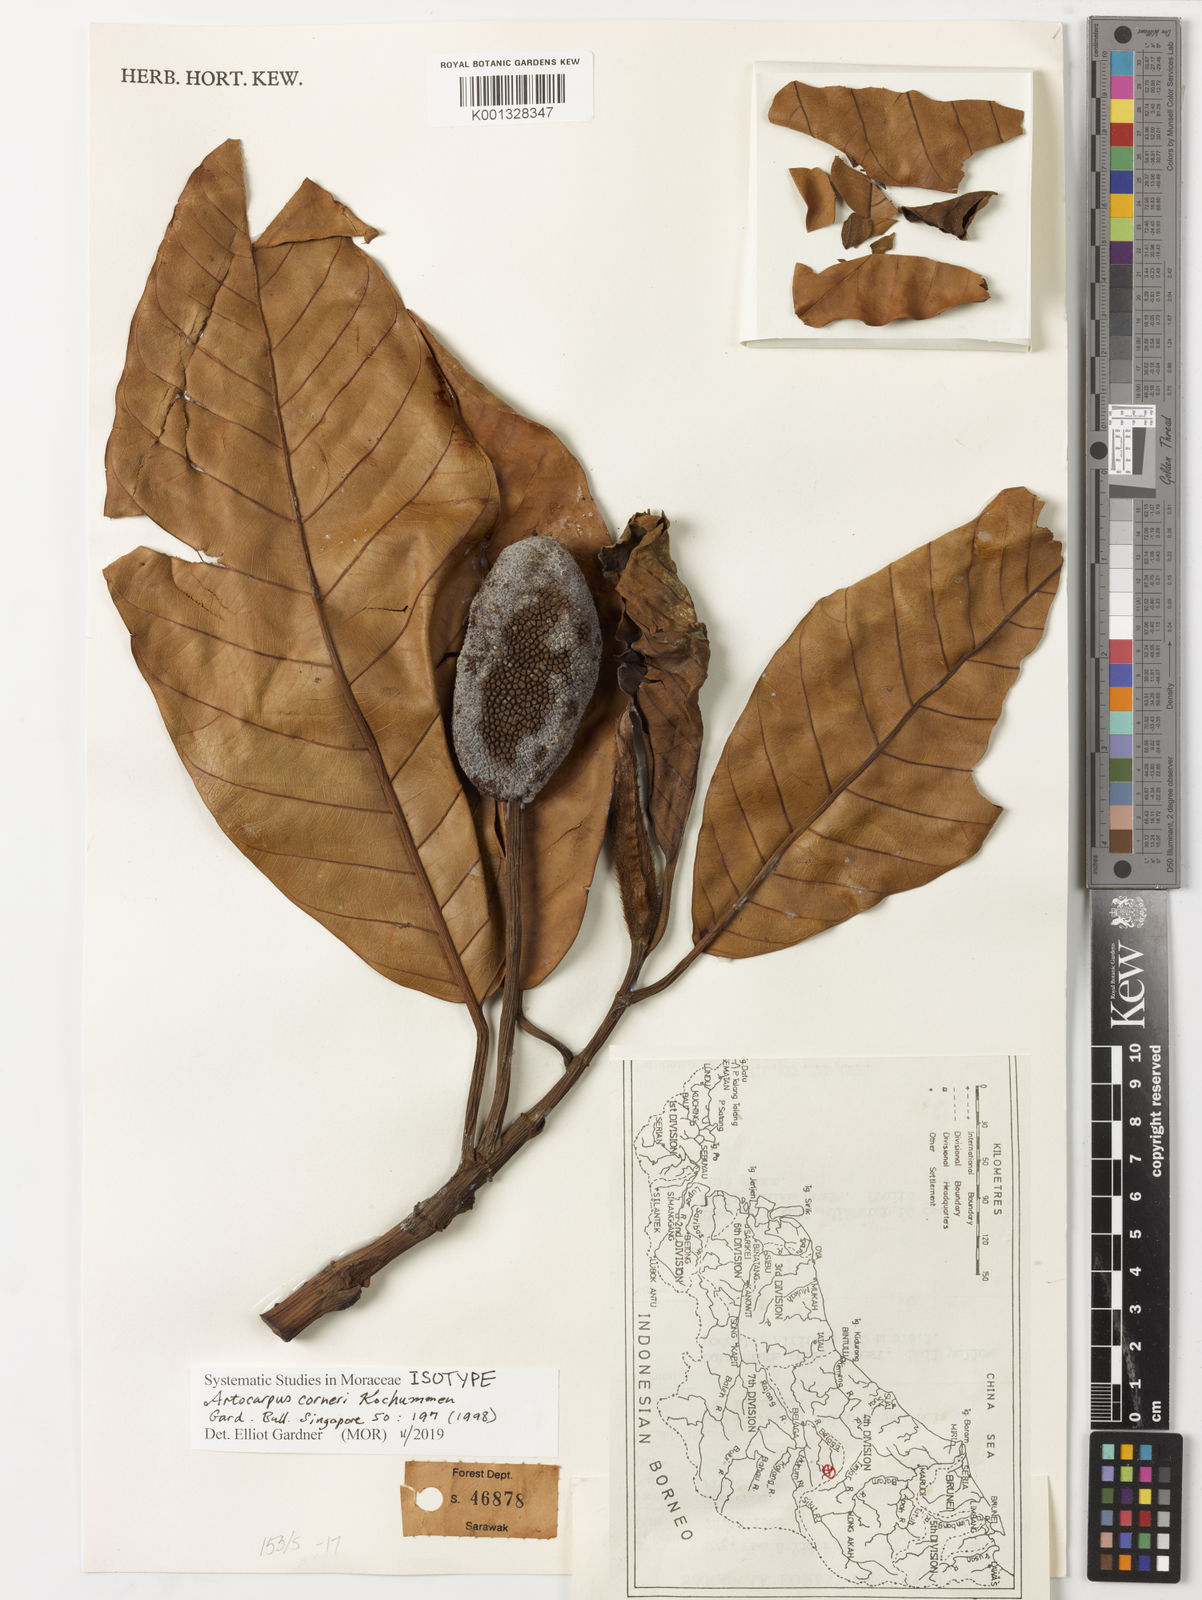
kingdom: Plantae
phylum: Tracheophyta
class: Magnoliopsida
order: Rosales
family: Moraceae
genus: Artocarpus
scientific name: Artocarpus elasticus
